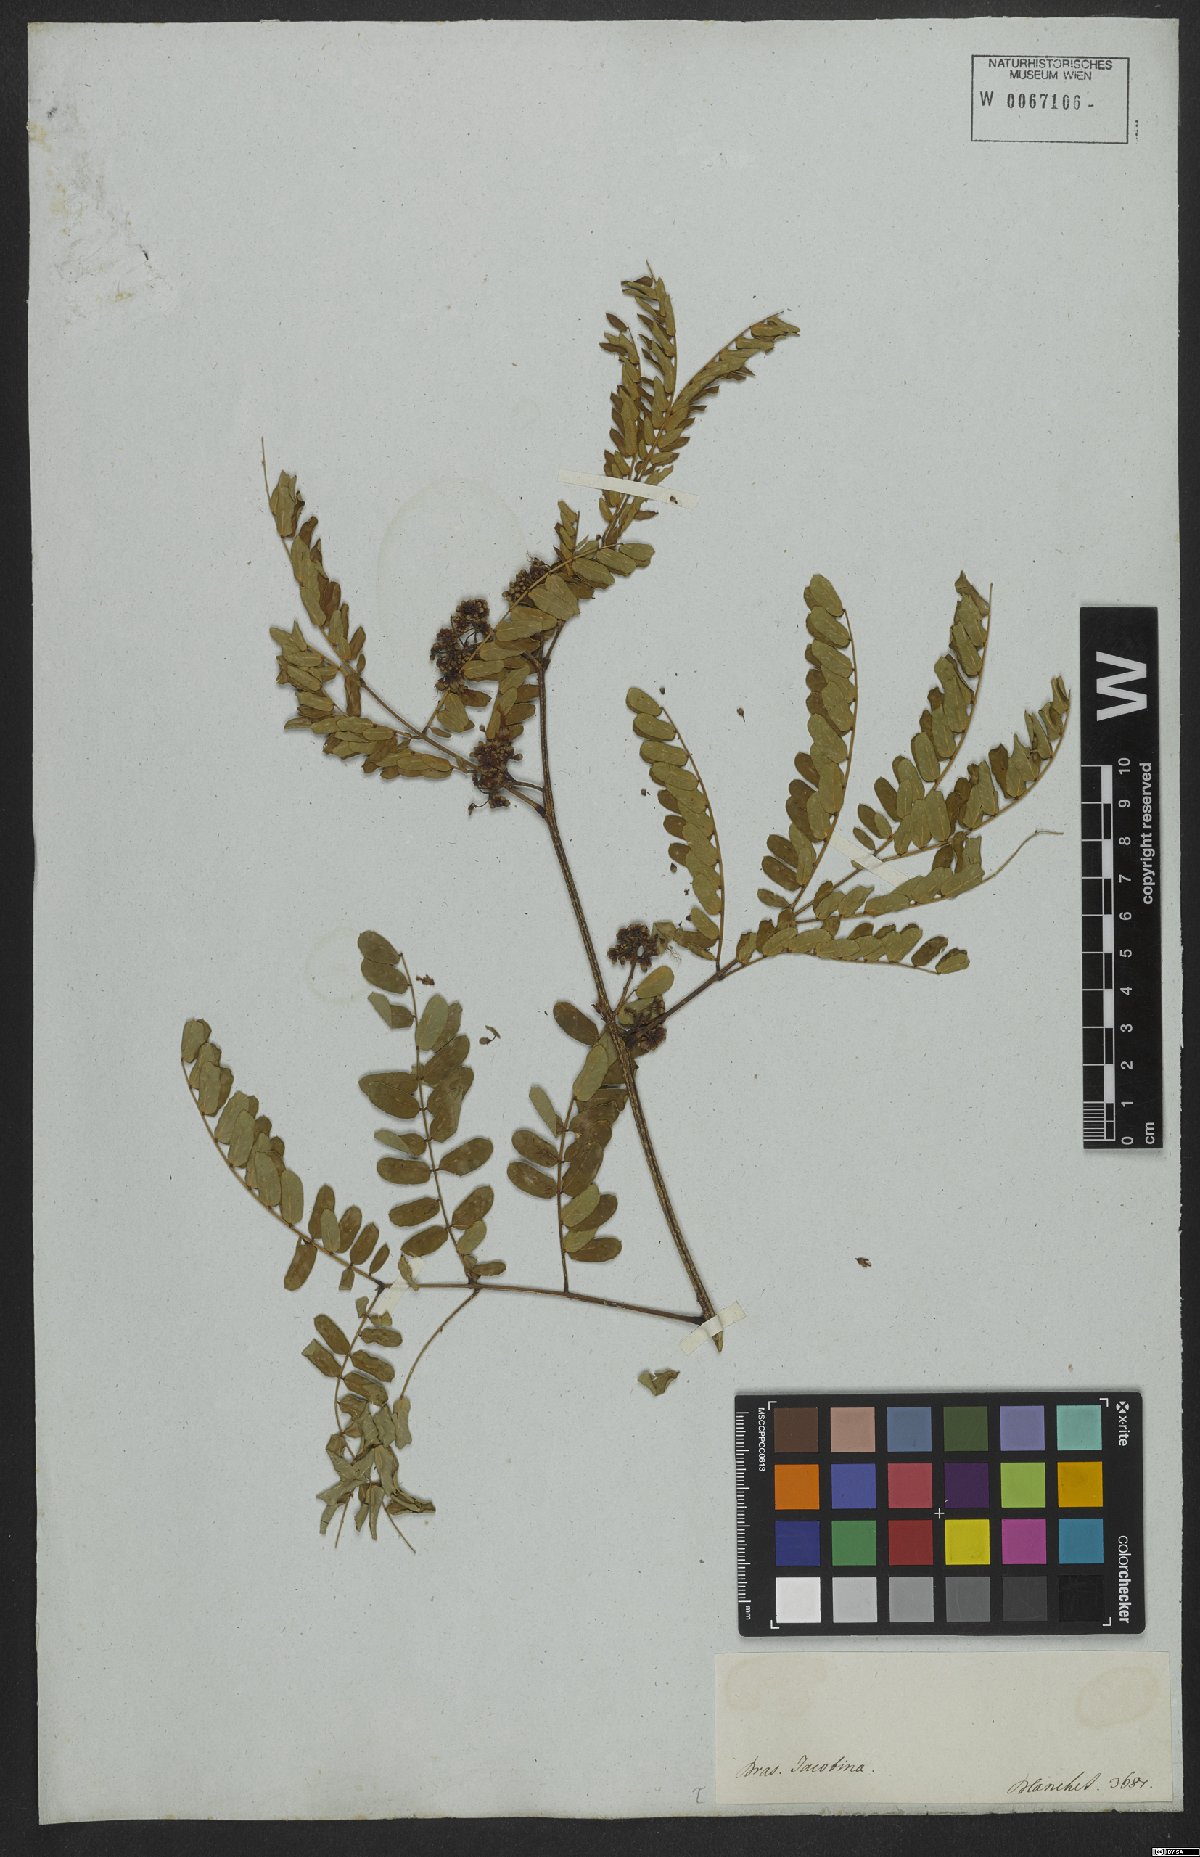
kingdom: Plantae
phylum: Tracheophyta
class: Magnoliopsida
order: Fabales
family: Fabaceae
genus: Blanchetiodendron
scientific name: Blanchetiodendron blanchetii
